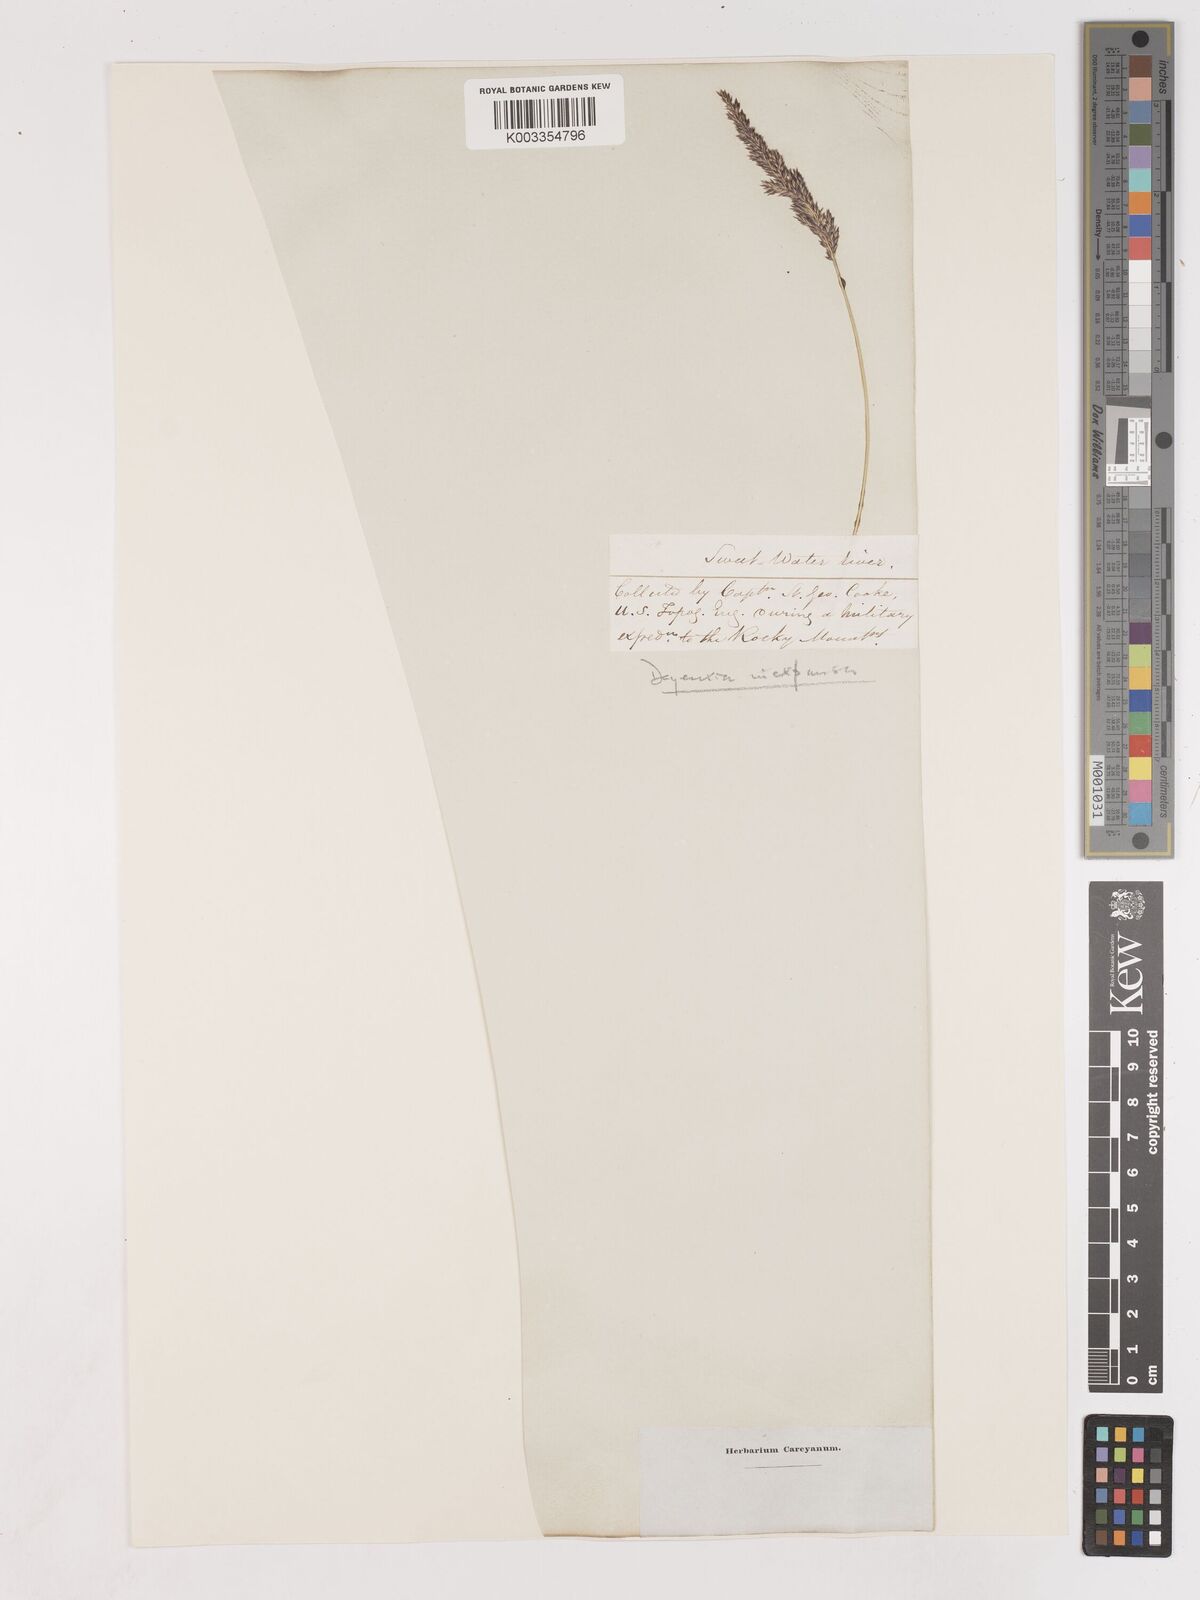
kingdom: Plantae
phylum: Tracheophyta
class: Liliopsida
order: Poales
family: Poaceae
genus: Cinnagrostis
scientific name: Cinnagrostis recta
